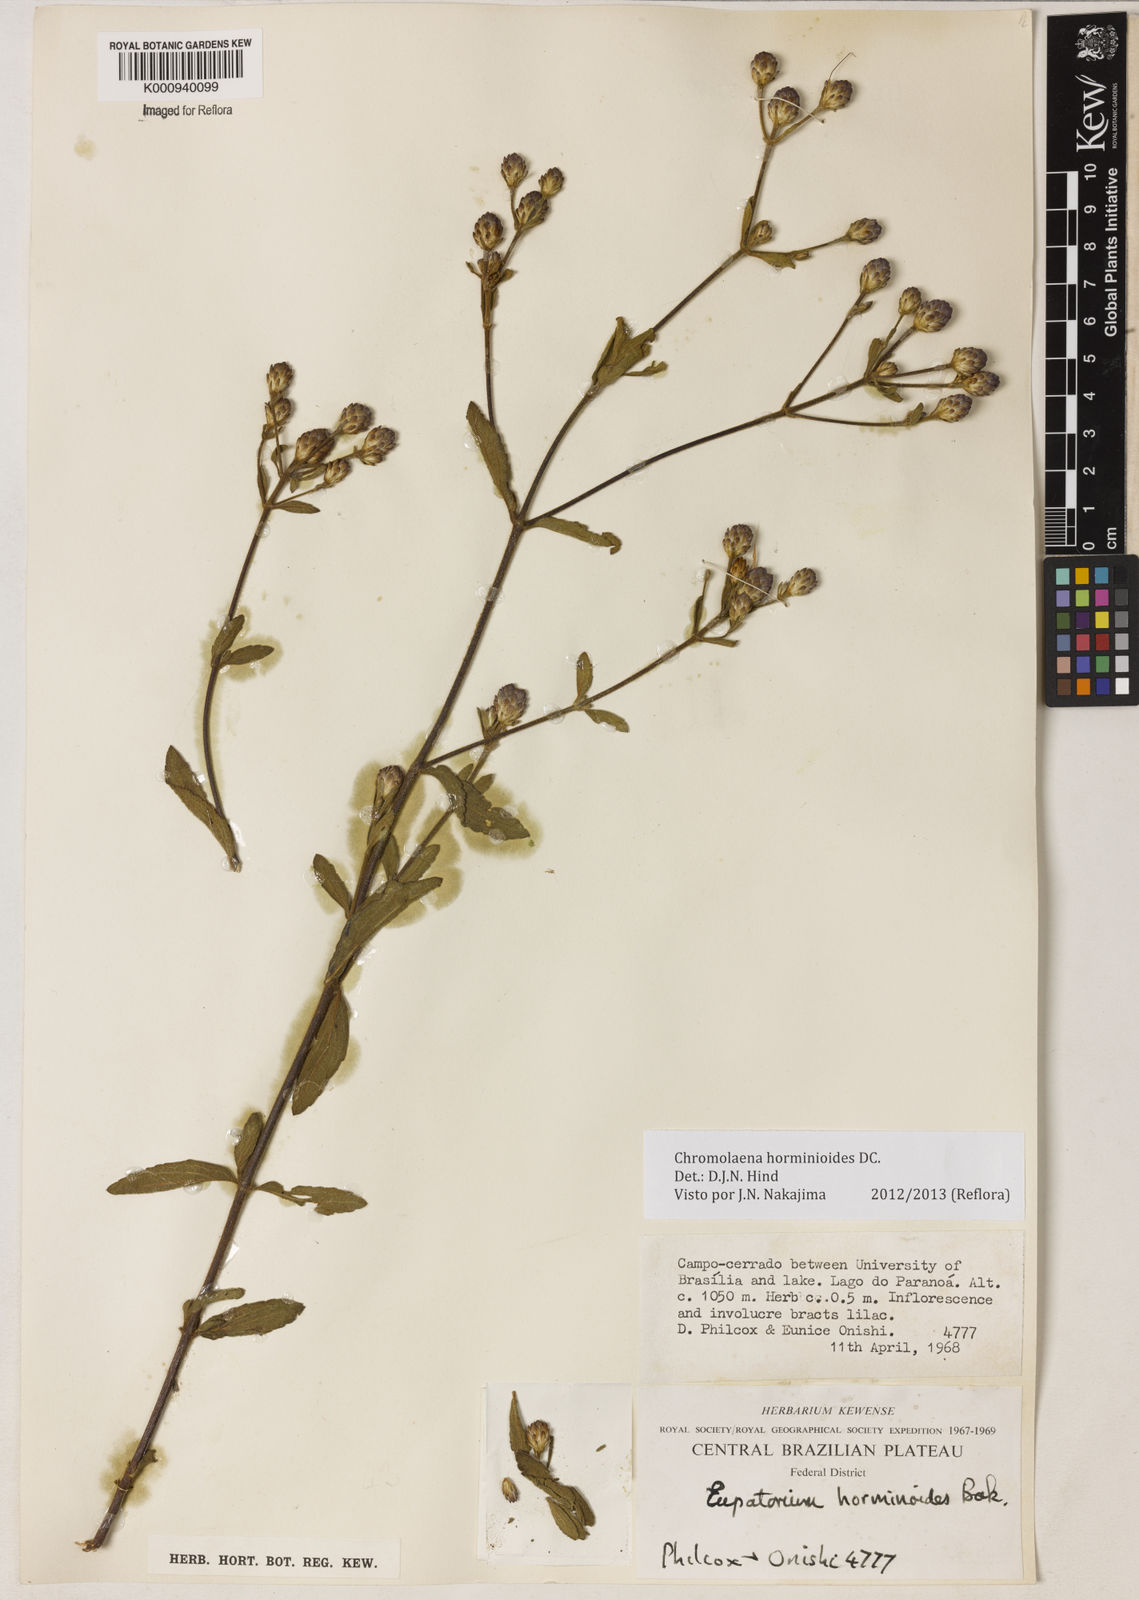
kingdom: Plantae
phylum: Tracheophyta
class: Magnoliopsida
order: Asterales
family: Asteraceae
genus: Chromolaena
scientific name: Chromolaena horminoides
